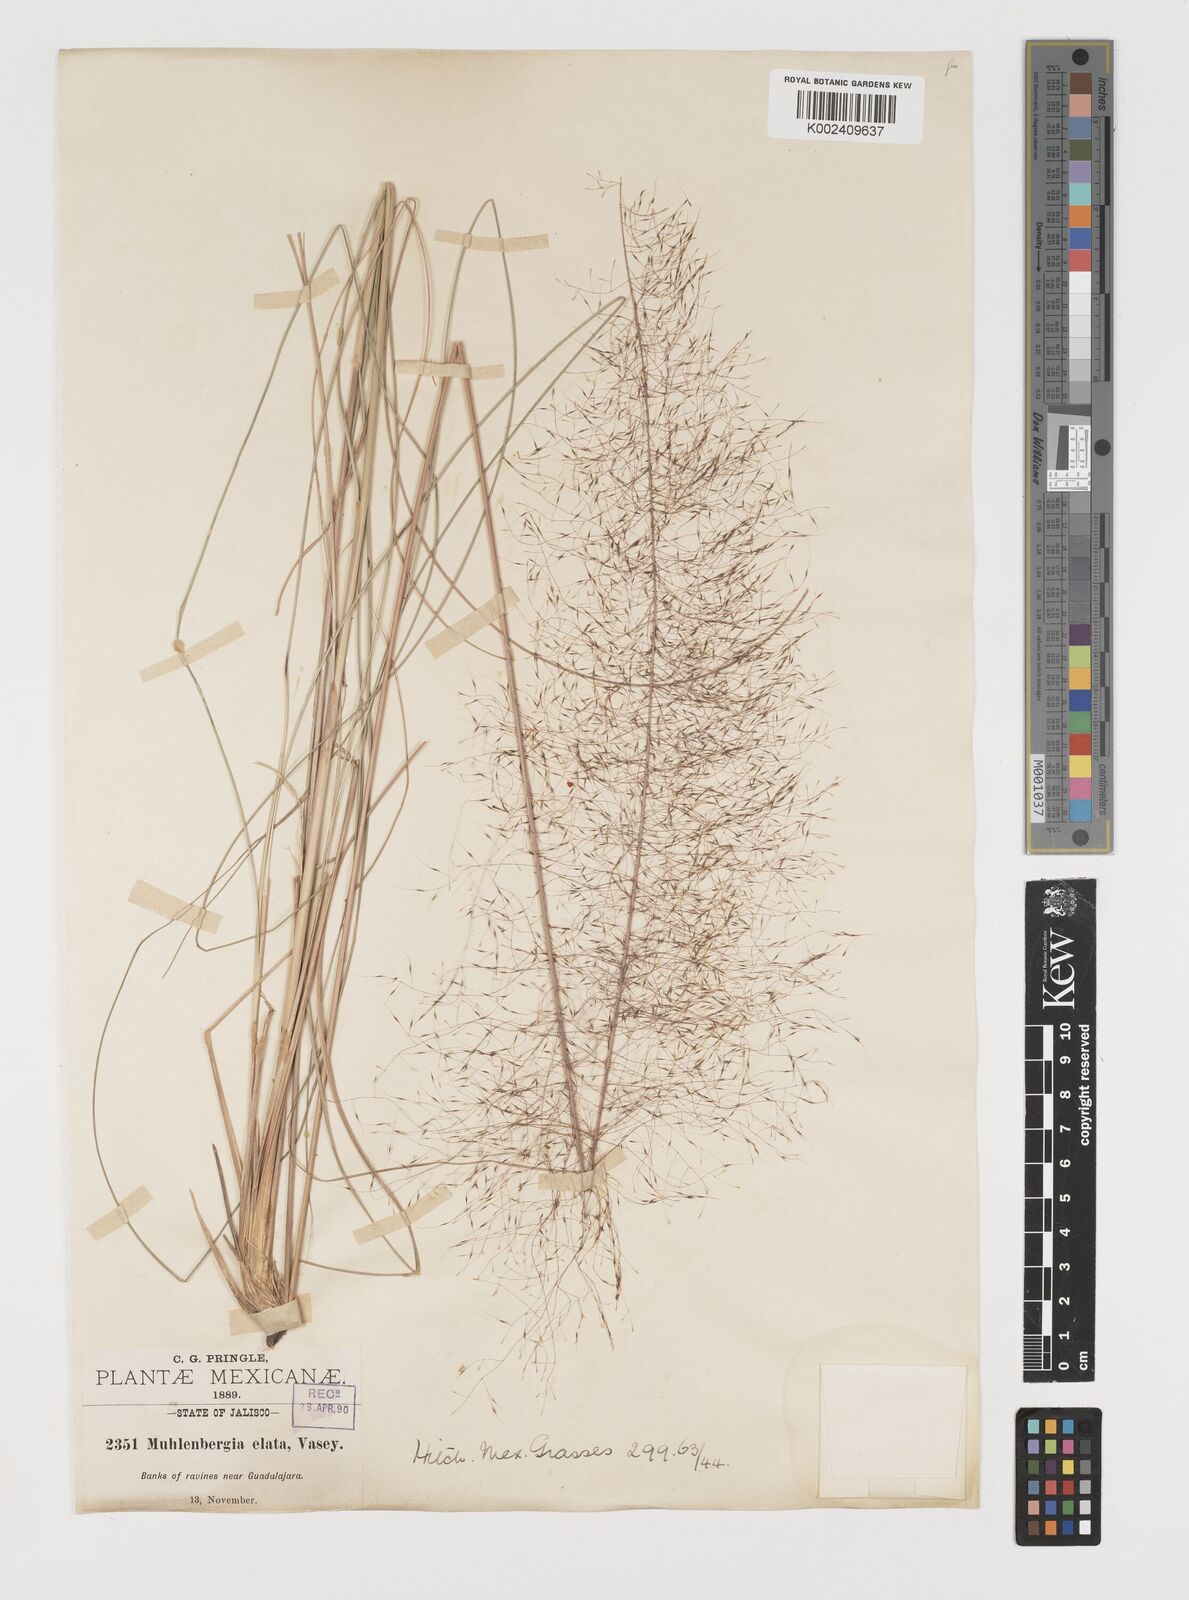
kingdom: Plantae
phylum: Tracheophyta
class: Liliopsida
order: Poales
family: Poaceae
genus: Muhlenbergia
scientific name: Muhlenbergia stricta
